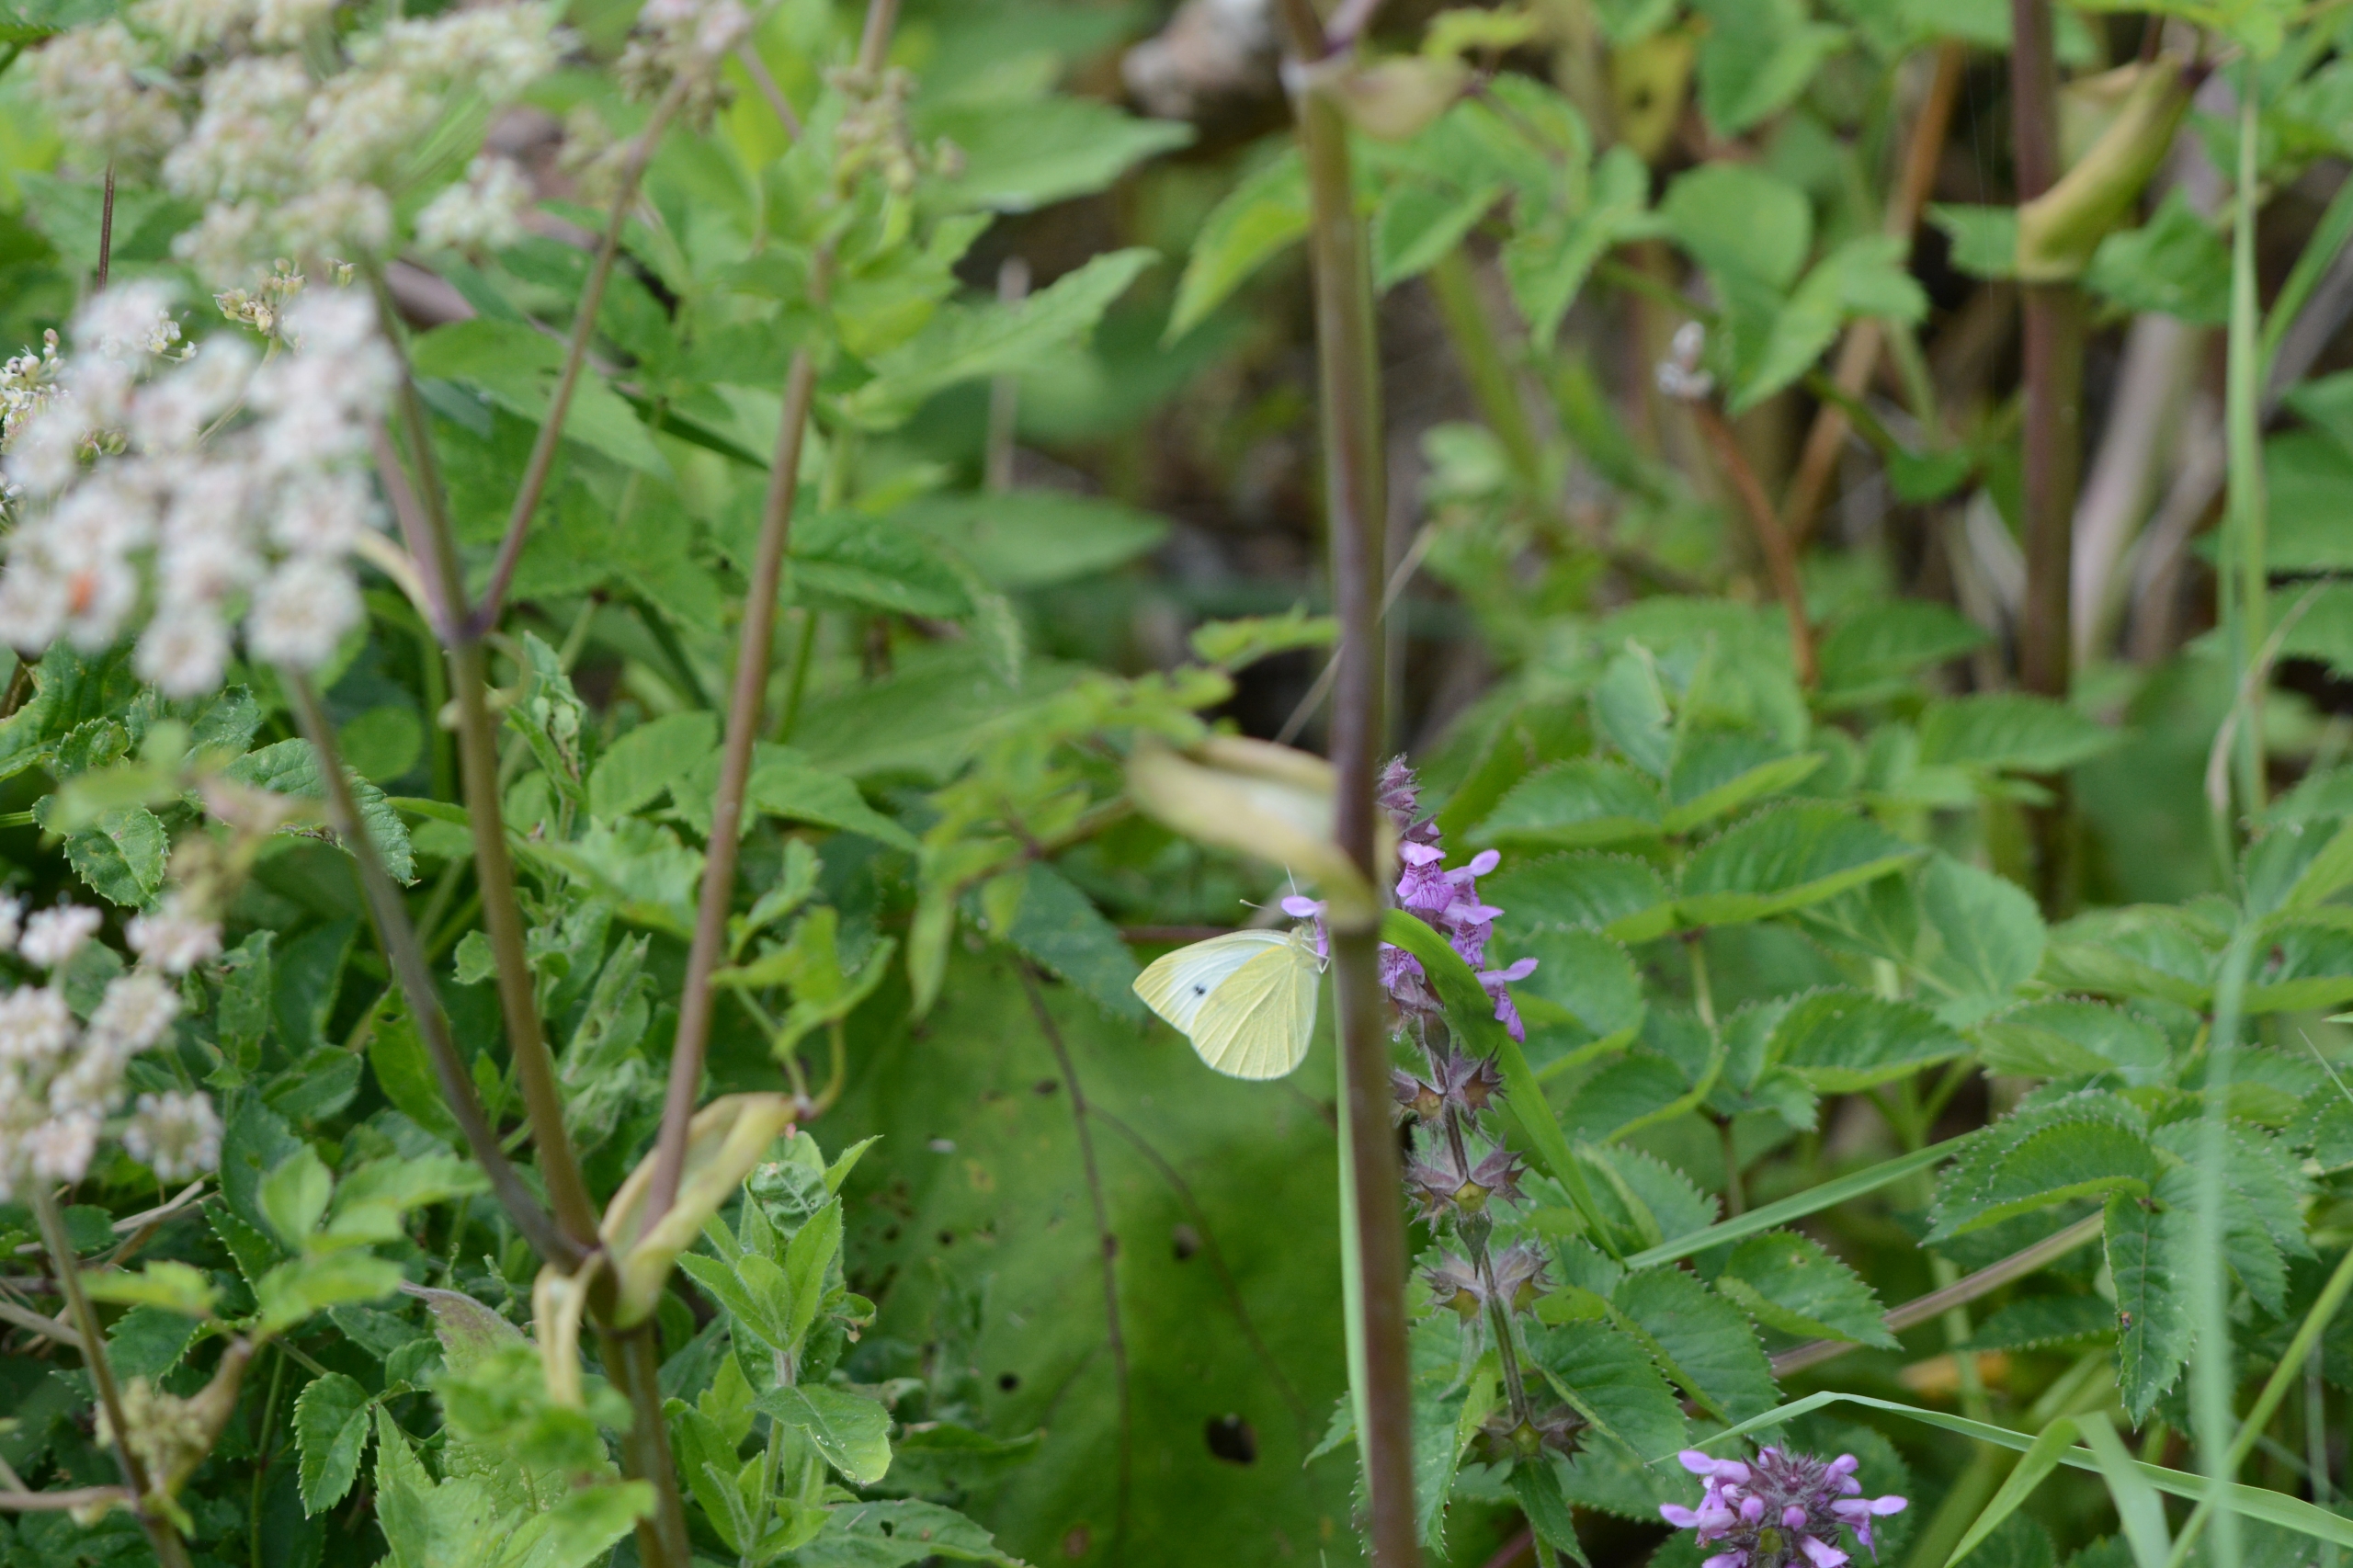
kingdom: Animalia
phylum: Arthropoda
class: Insecta
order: Lepidoptera
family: Pieridae
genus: Pieris
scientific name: Pieris rapae
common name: Lille kålsommerfugl
